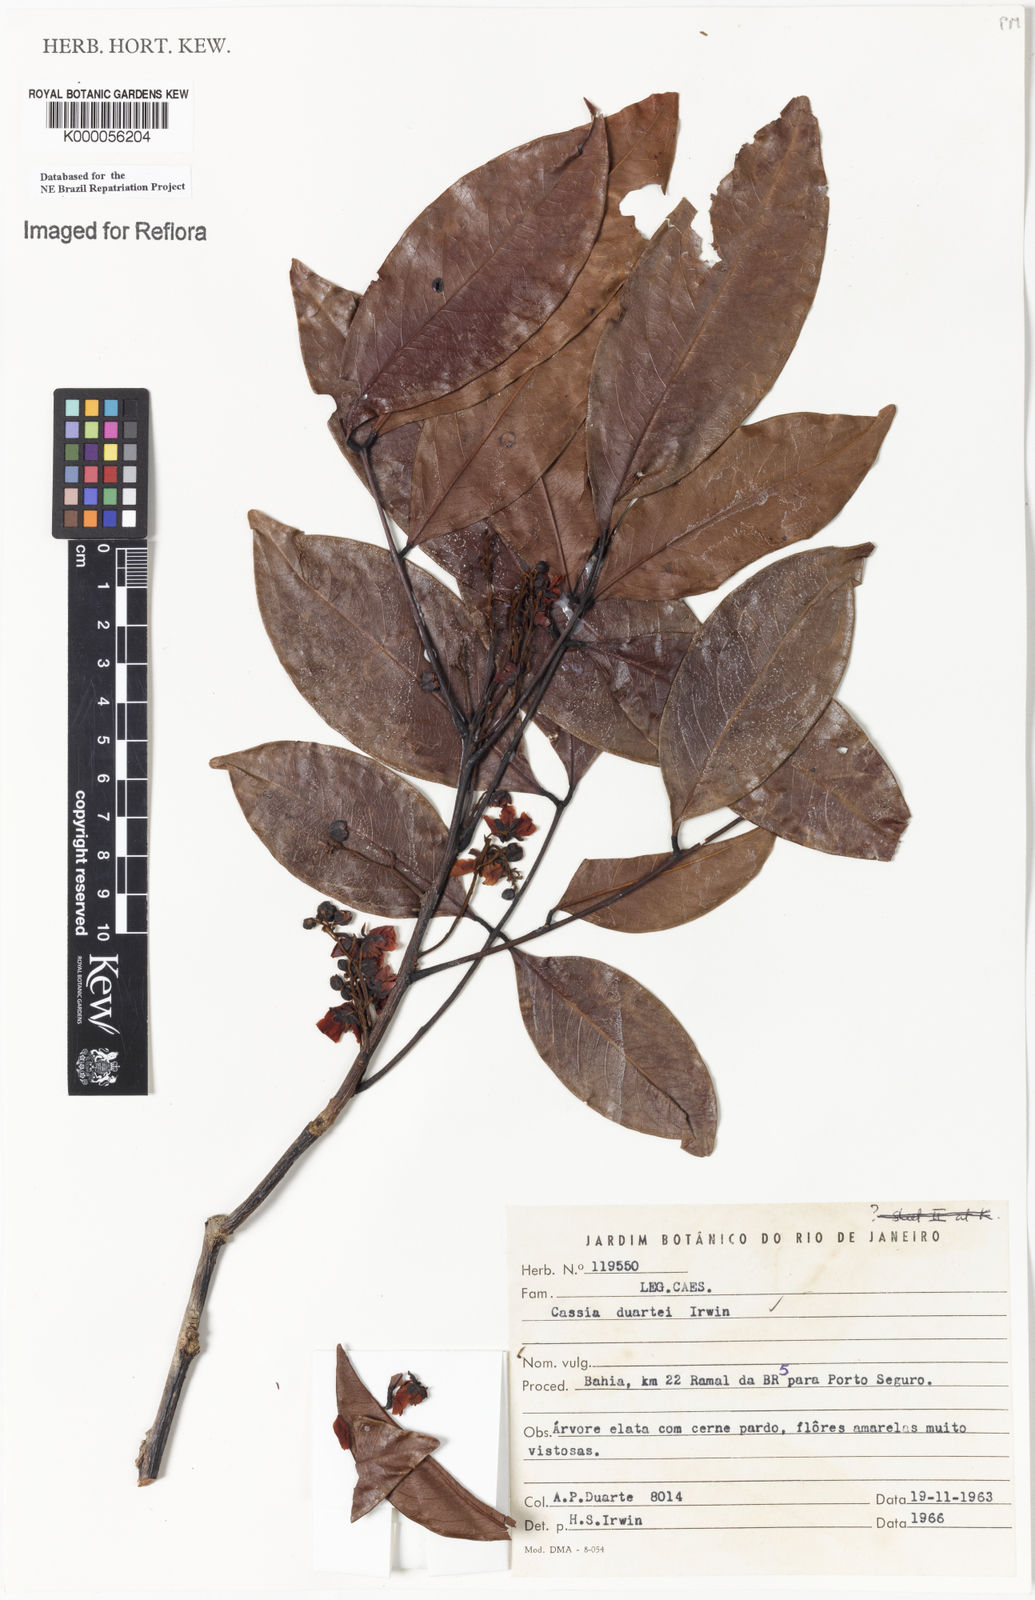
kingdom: Plantae
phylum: Tracheophyta
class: Magnoliopsida
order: Fabales
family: Fabaceae
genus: Chamaecrista
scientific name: Chamaecrista duartei
